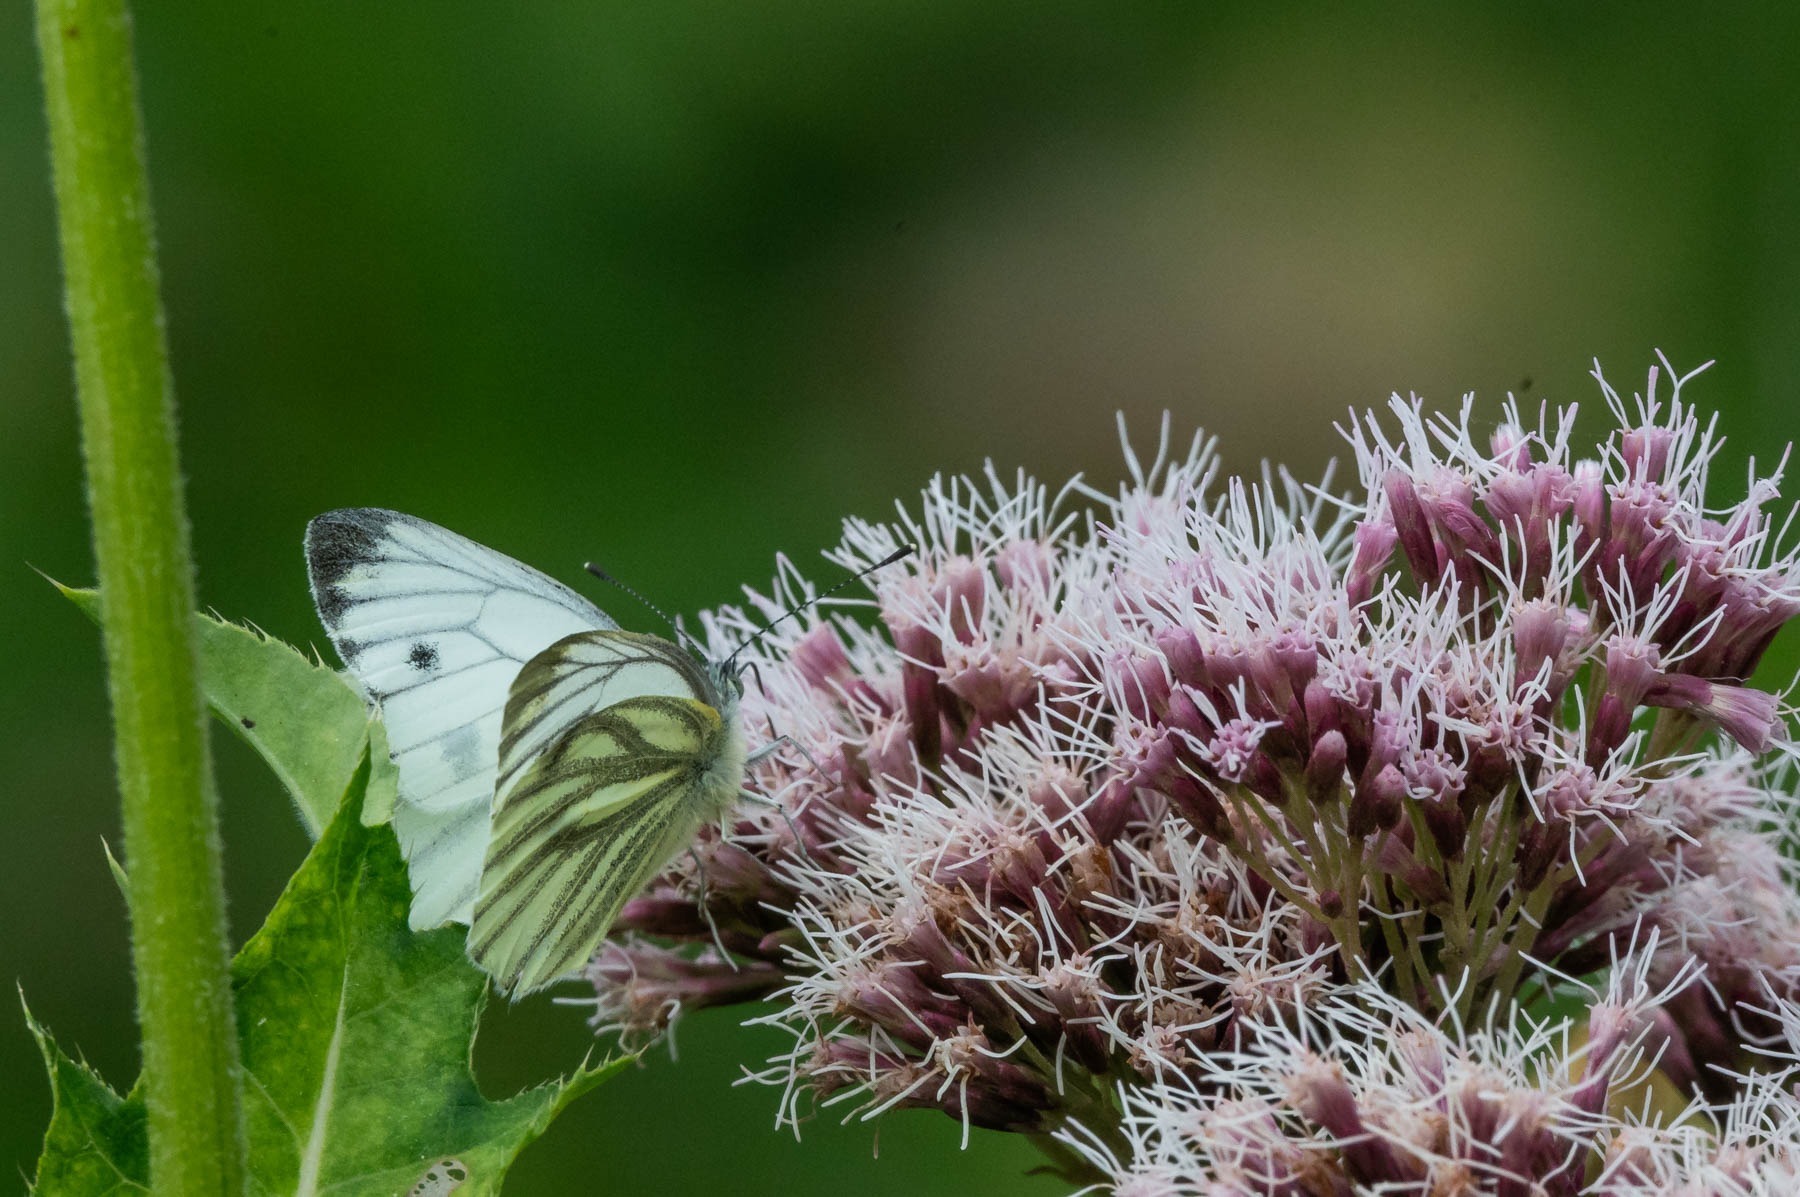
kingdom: Animalia
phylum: Arthropoda
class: Insecta
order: Lepidoptera
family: Pieridae
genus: Pieris
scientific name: Pieris napi
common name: Grønåret kålsommerfugl
